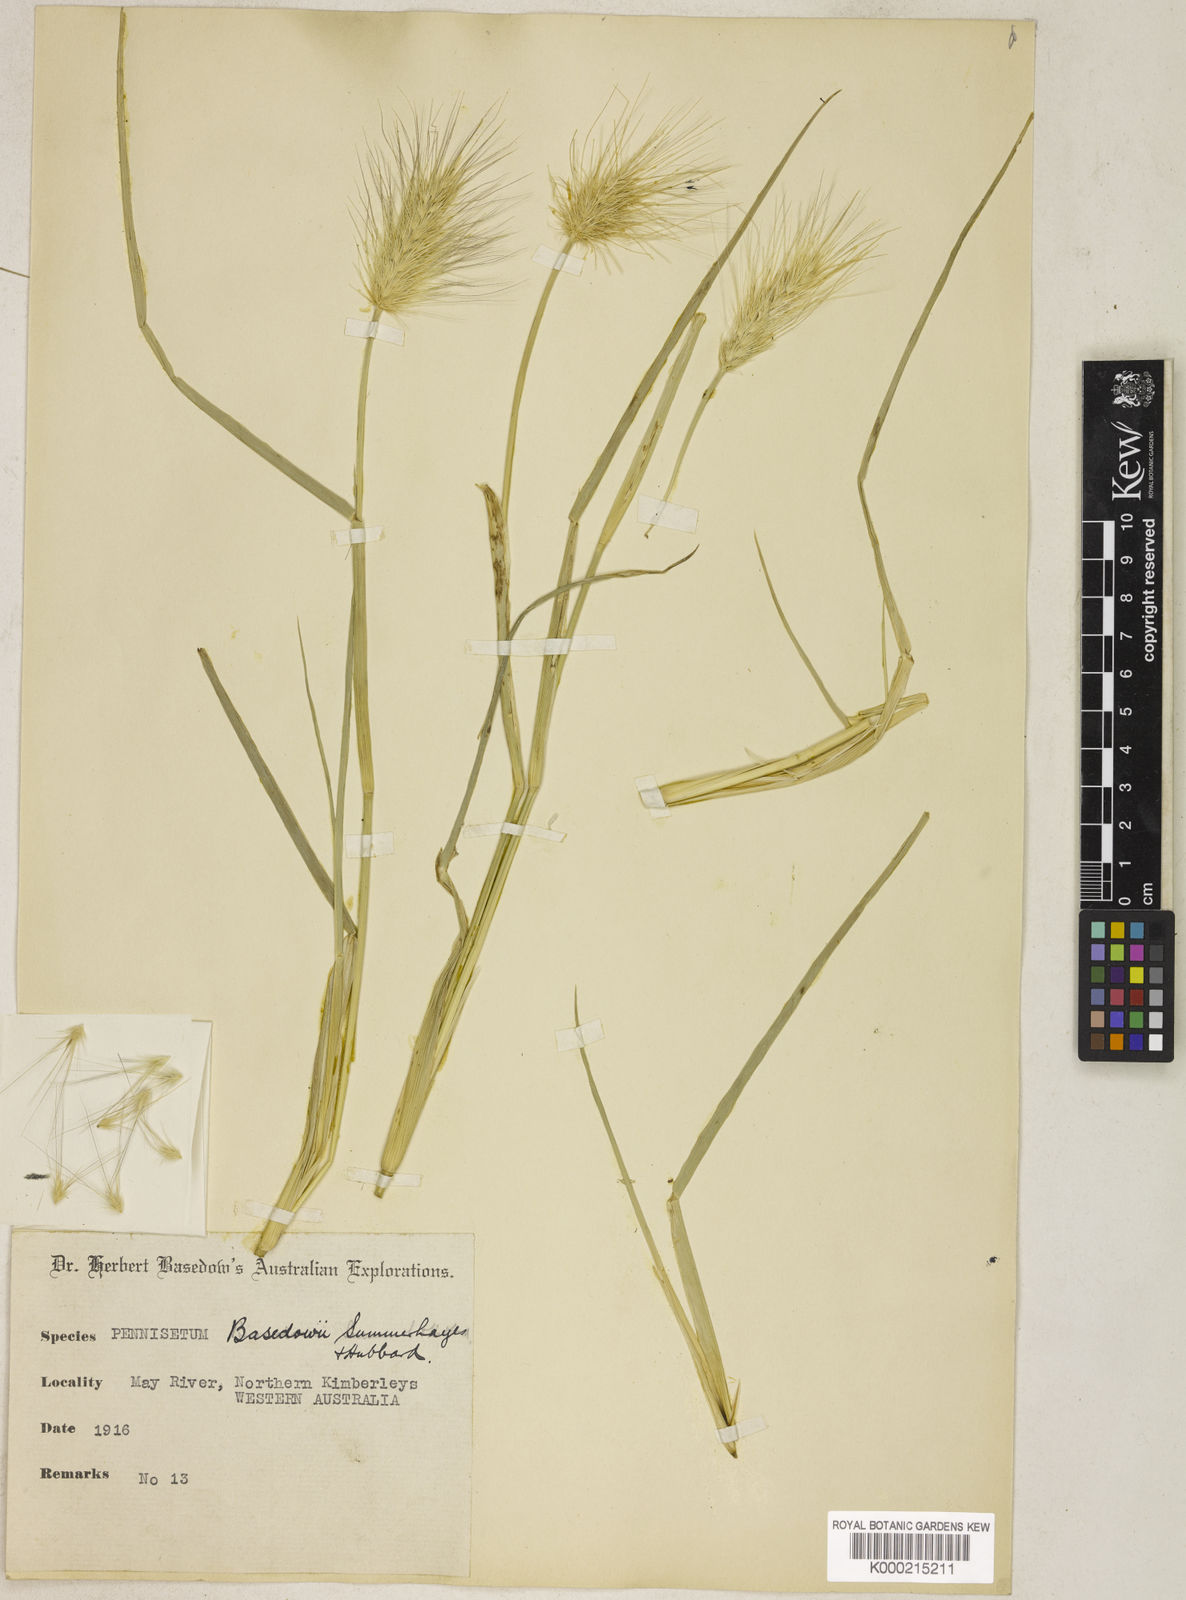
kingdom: Plantae
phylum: Tracheophyta
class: Liliopsida
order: Poales
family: Poaceae
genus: Cenchrus
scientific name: Cenchrus basedowii
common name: Asbestos grass
